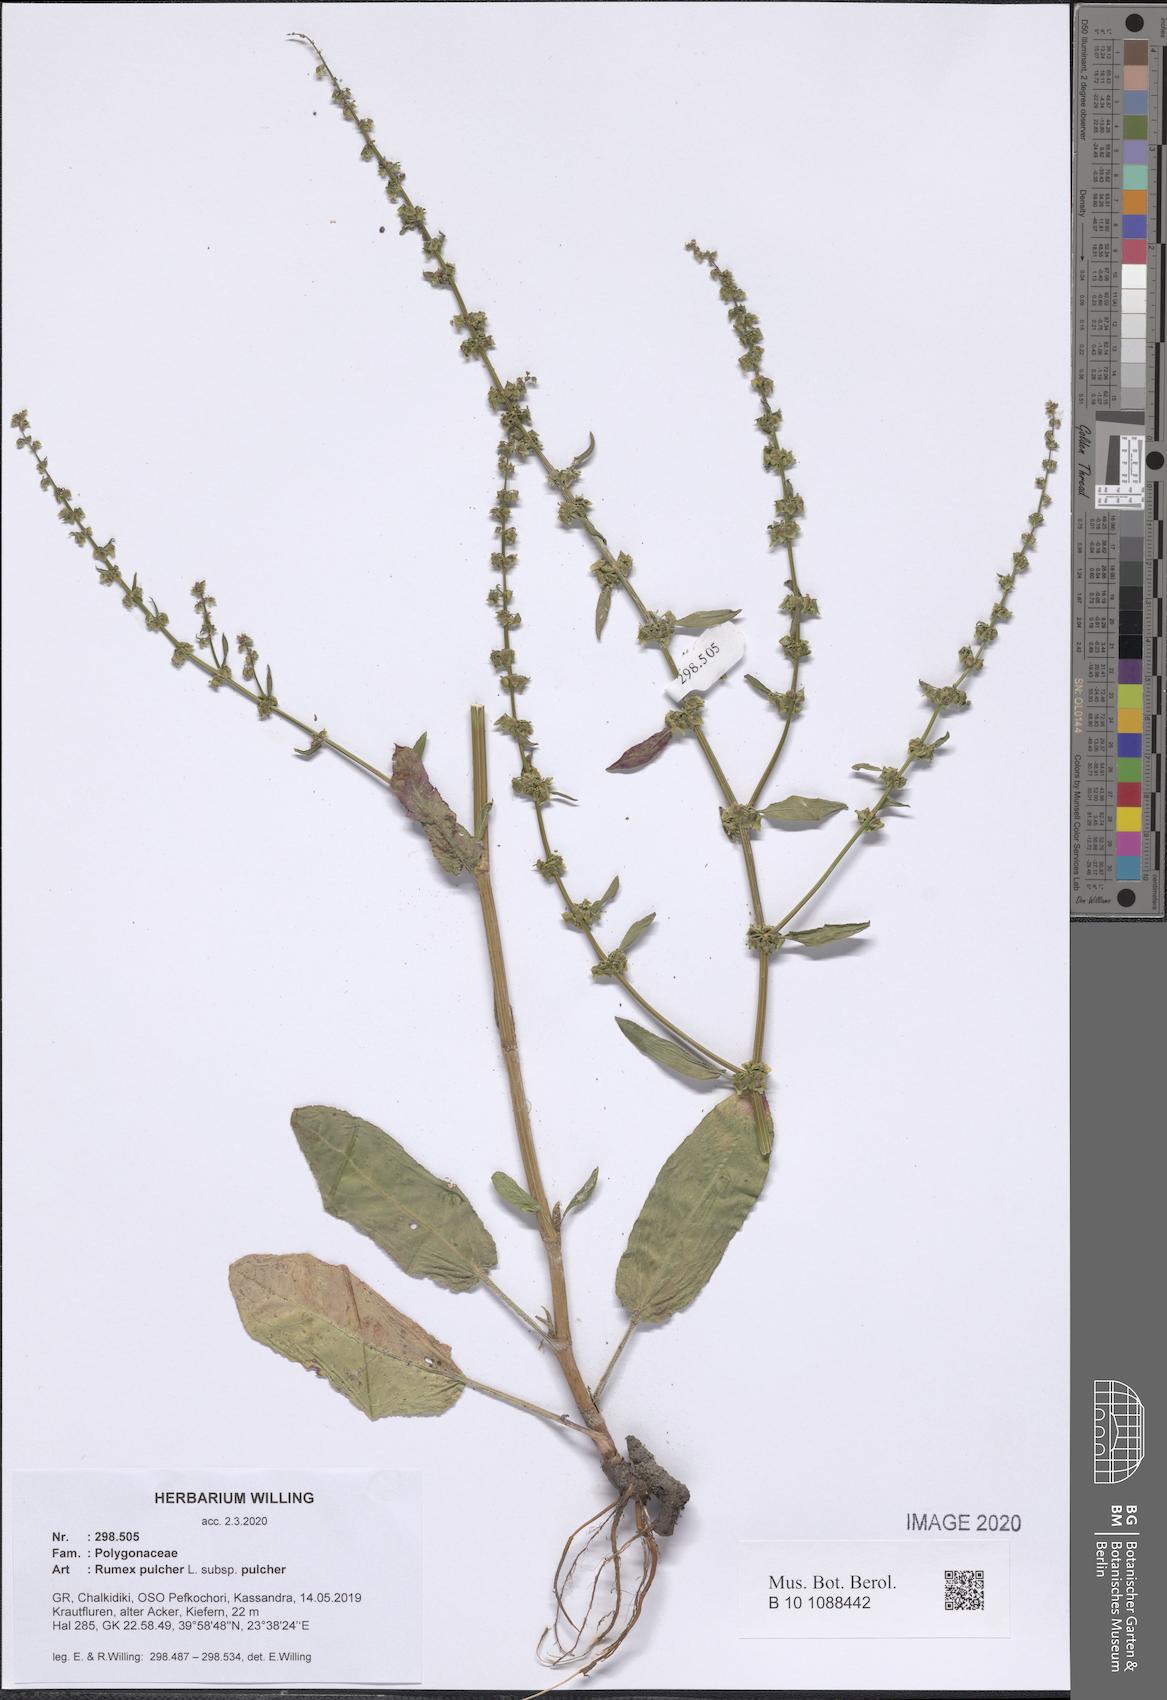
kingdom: Plantae
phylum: Tracheophyta
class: Magnoliopsida
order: Caryophyllales
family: Polygonaceae
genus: Rumex
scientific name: Rumex pulcher
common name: Fiddle dock
